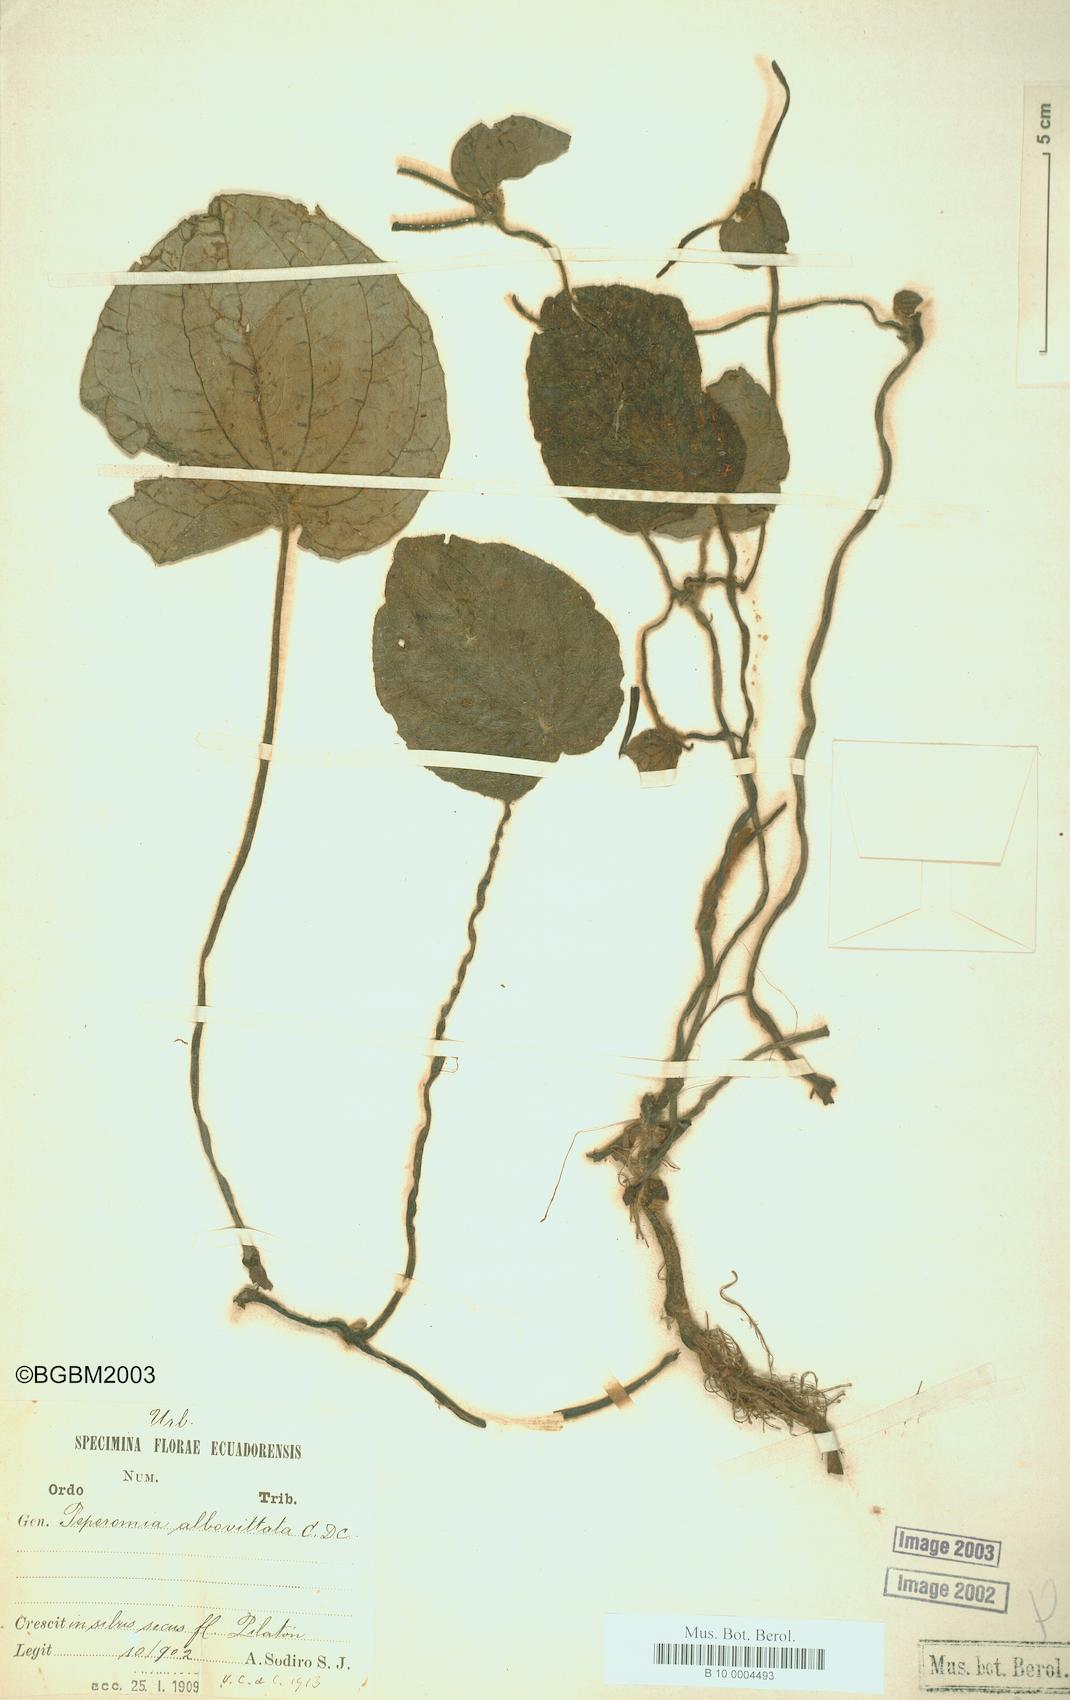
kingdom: Plantae
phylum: Tracheophyta
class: Magnoliopsida
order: Piperales
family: Piperaceae
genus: Peperomia
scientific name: Peperomia albovittata
